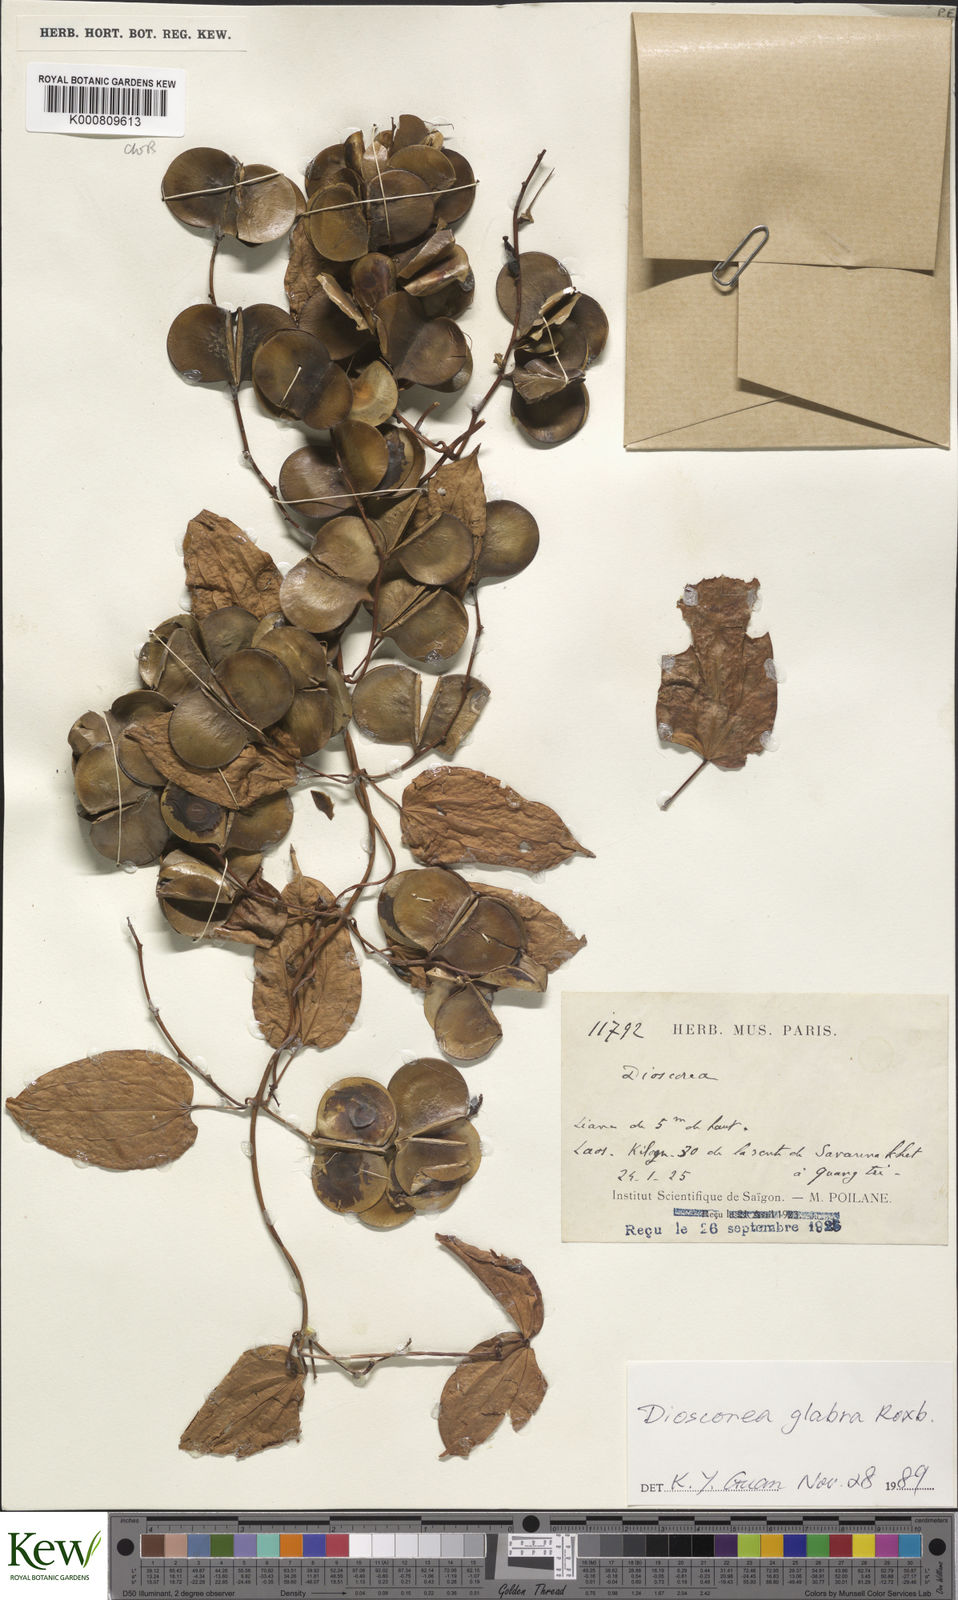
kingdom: Plantae
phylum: Tracheophyta
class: Liliopsida
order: Dioscoreales
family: Dioscoreaceae
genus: Dioscorea
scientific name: Dioscorea glabra
